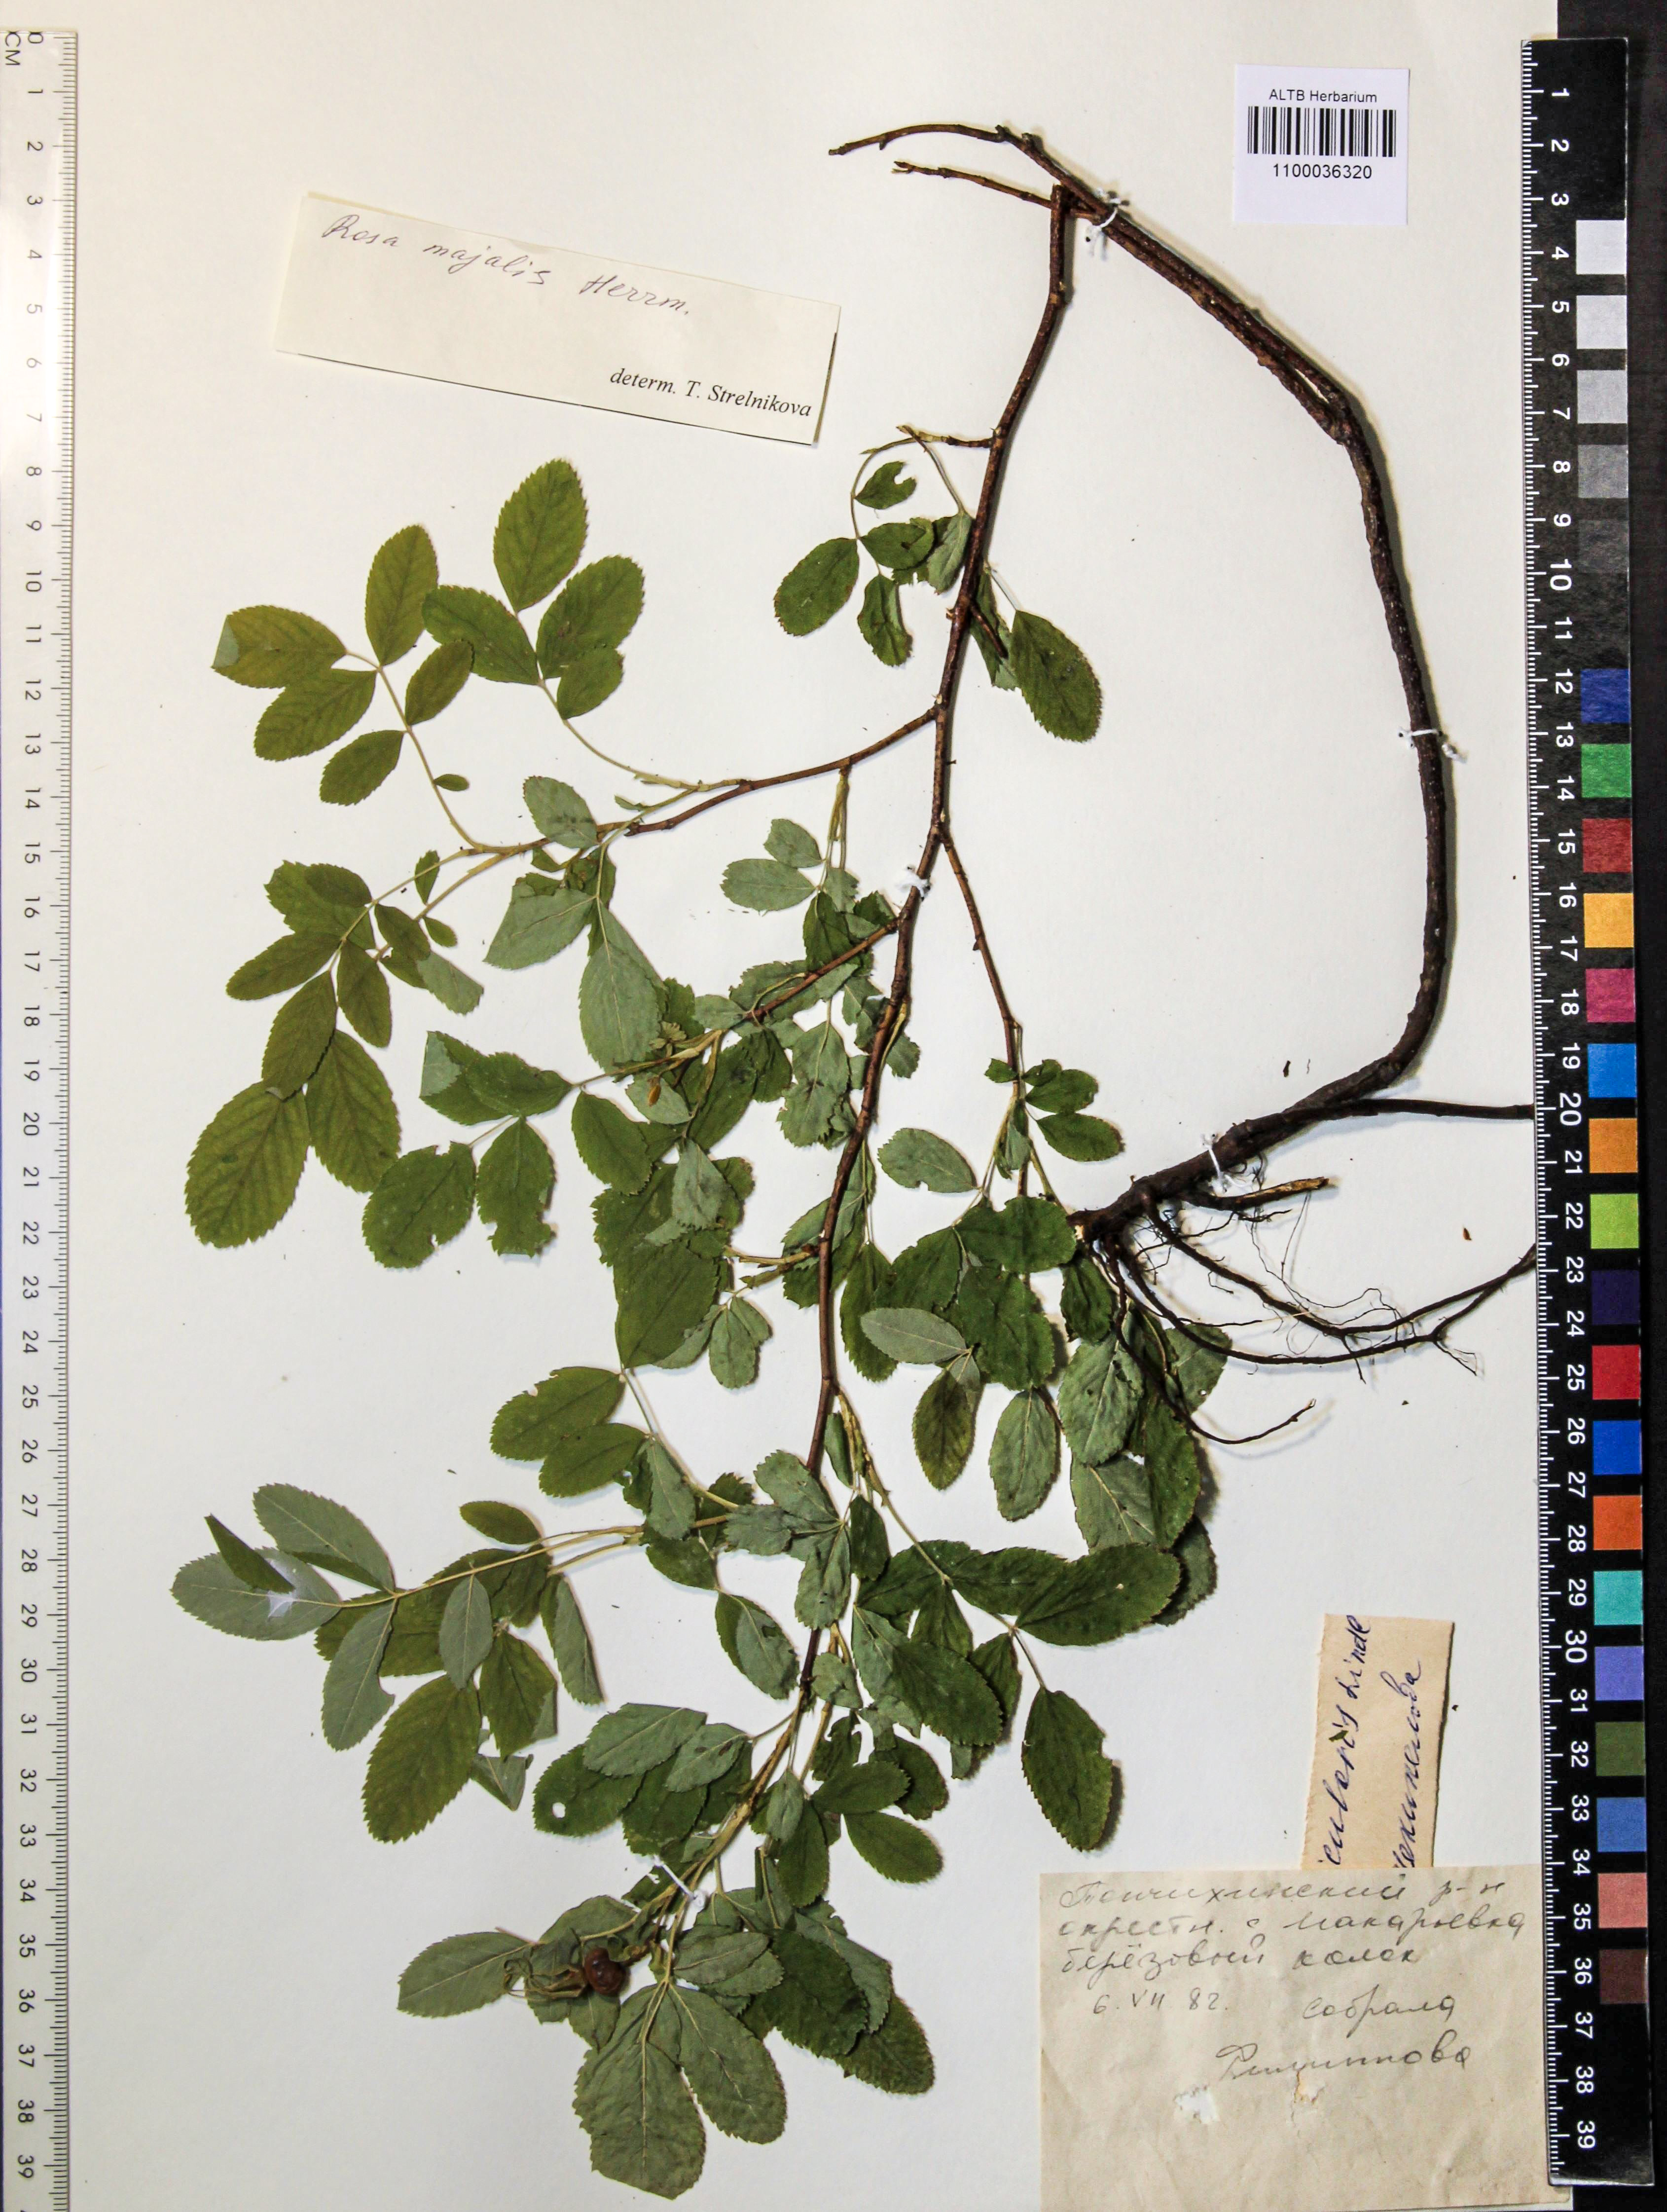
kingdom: Plantae
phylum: Tracheophyta
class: Magnoliopsida
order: Rosales
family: Rosaceae
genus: Rosa
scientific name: Rosa majalis
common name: Cinnamon rose
